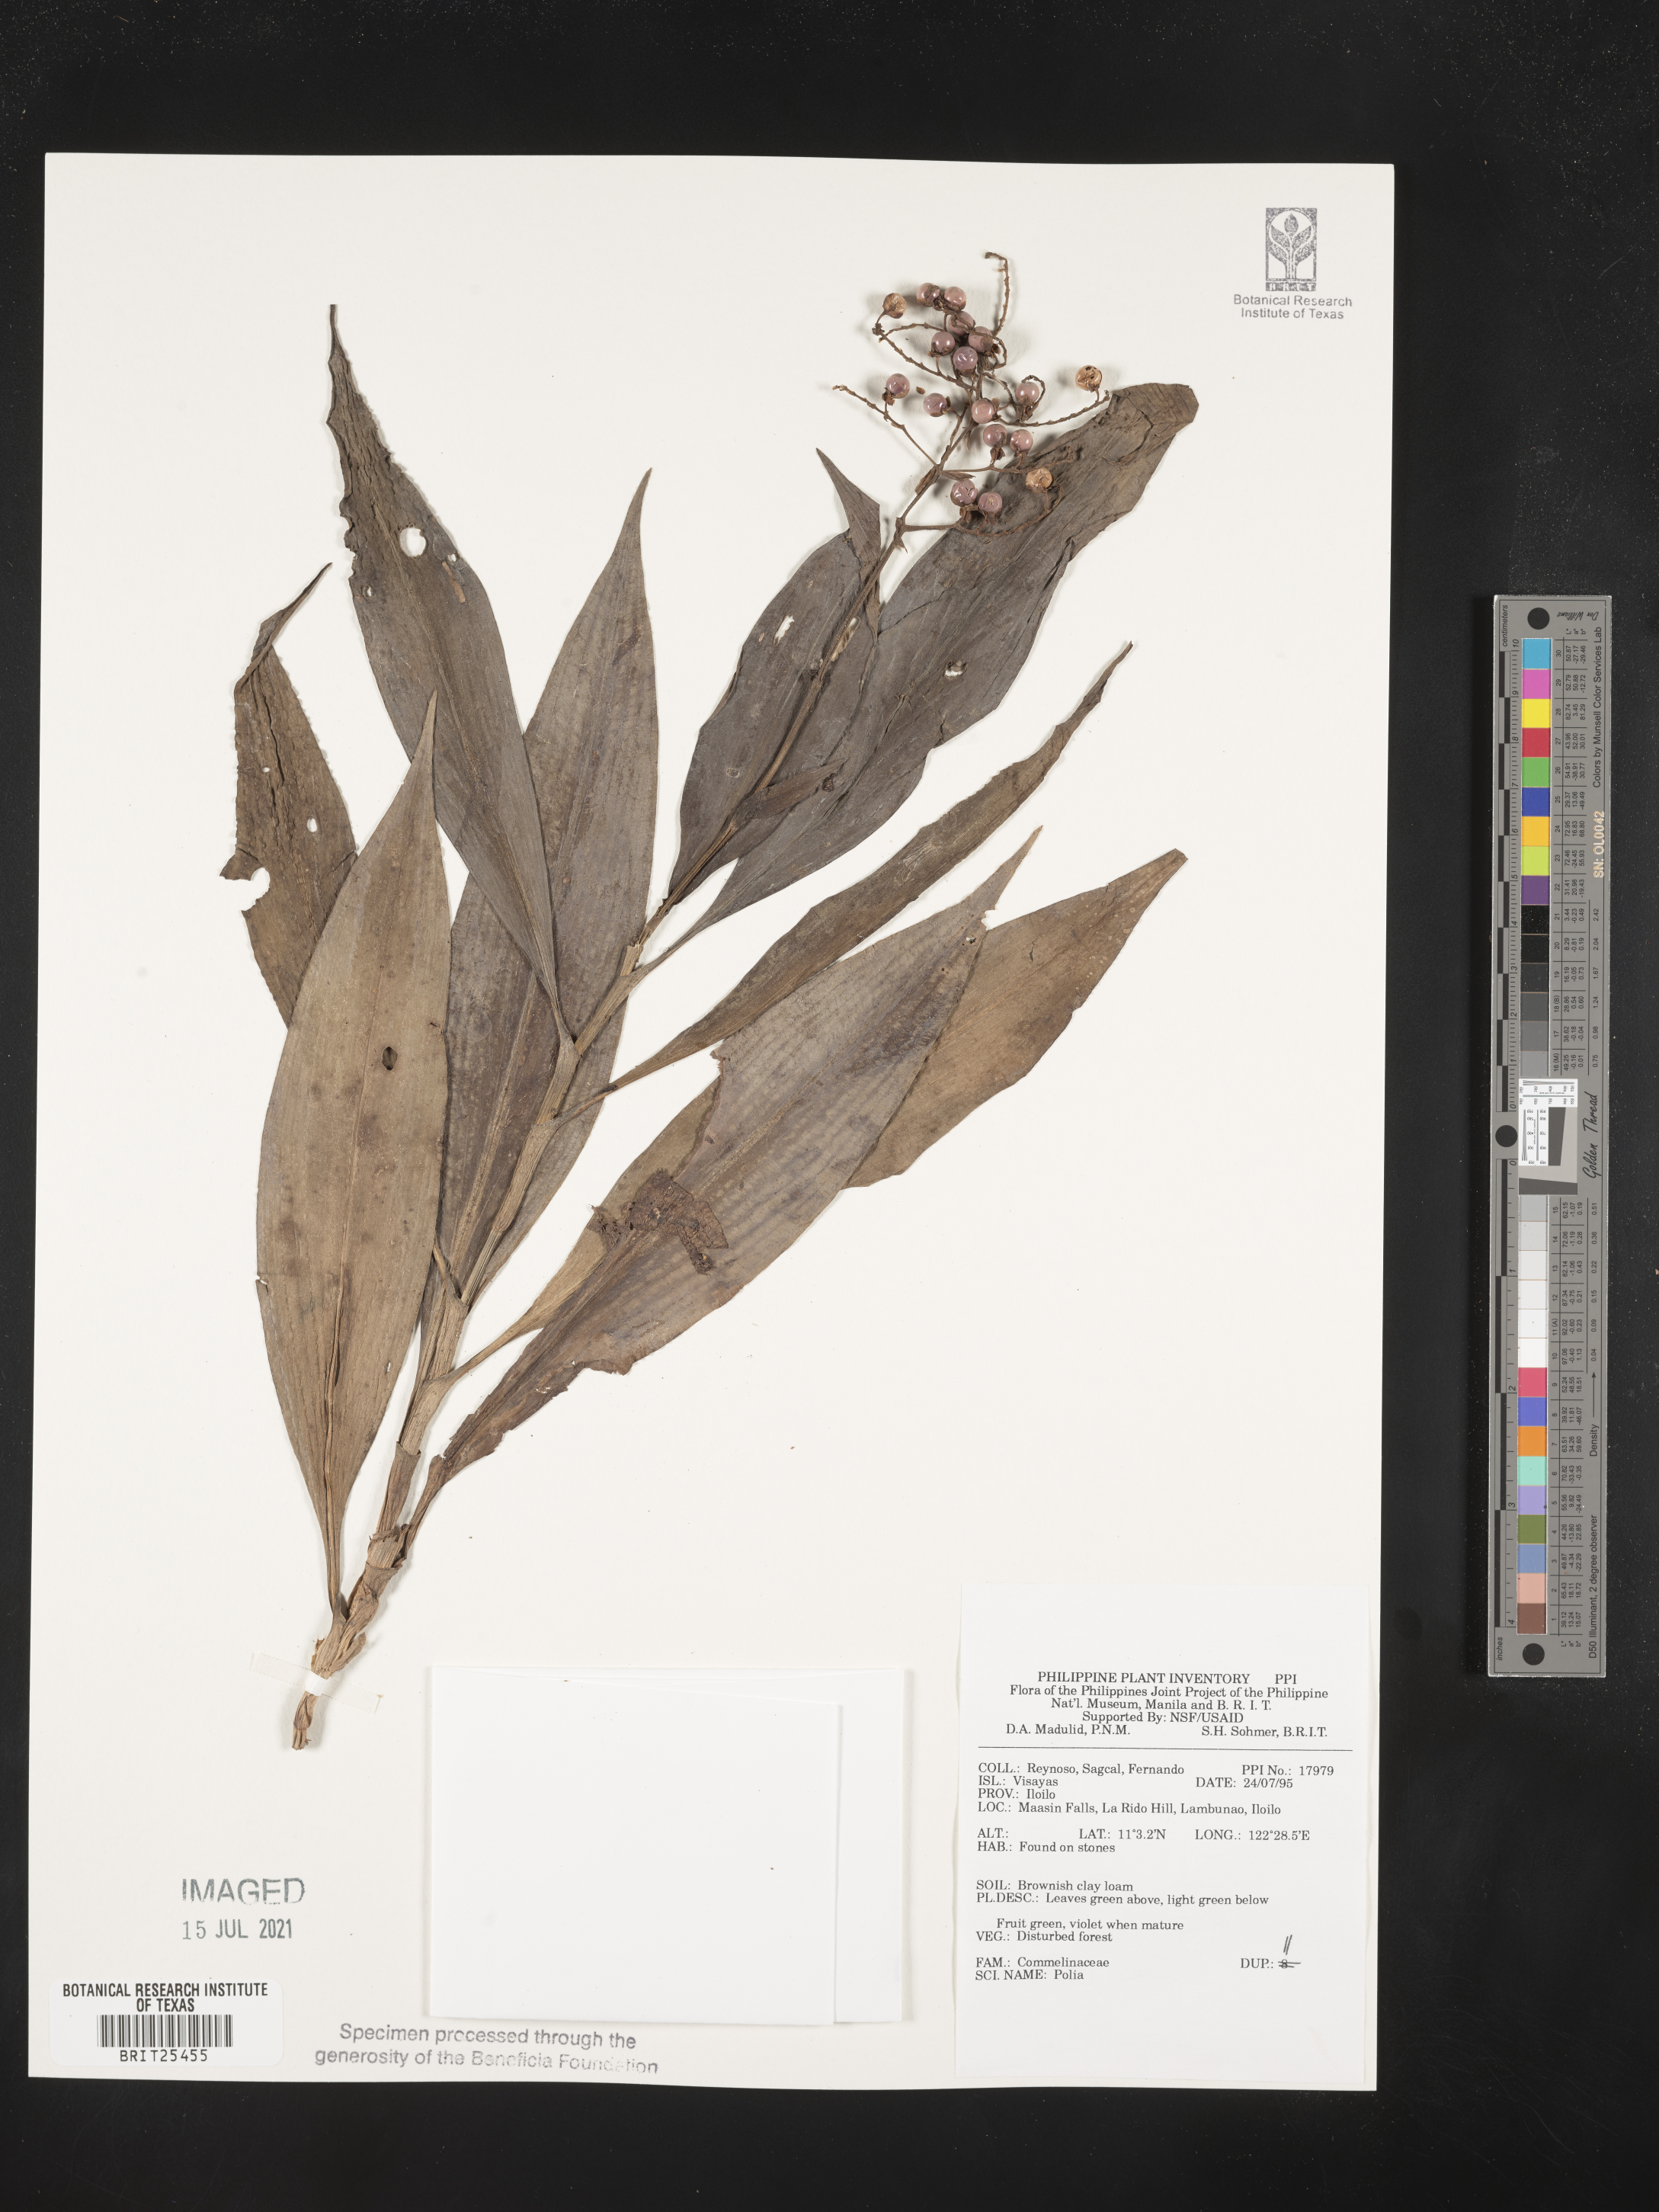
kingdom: Plantae
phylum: Tracheophyta
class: Liliopsida
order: Commelinales
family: Commelinaceae
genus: Pollia
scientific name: Pollia
